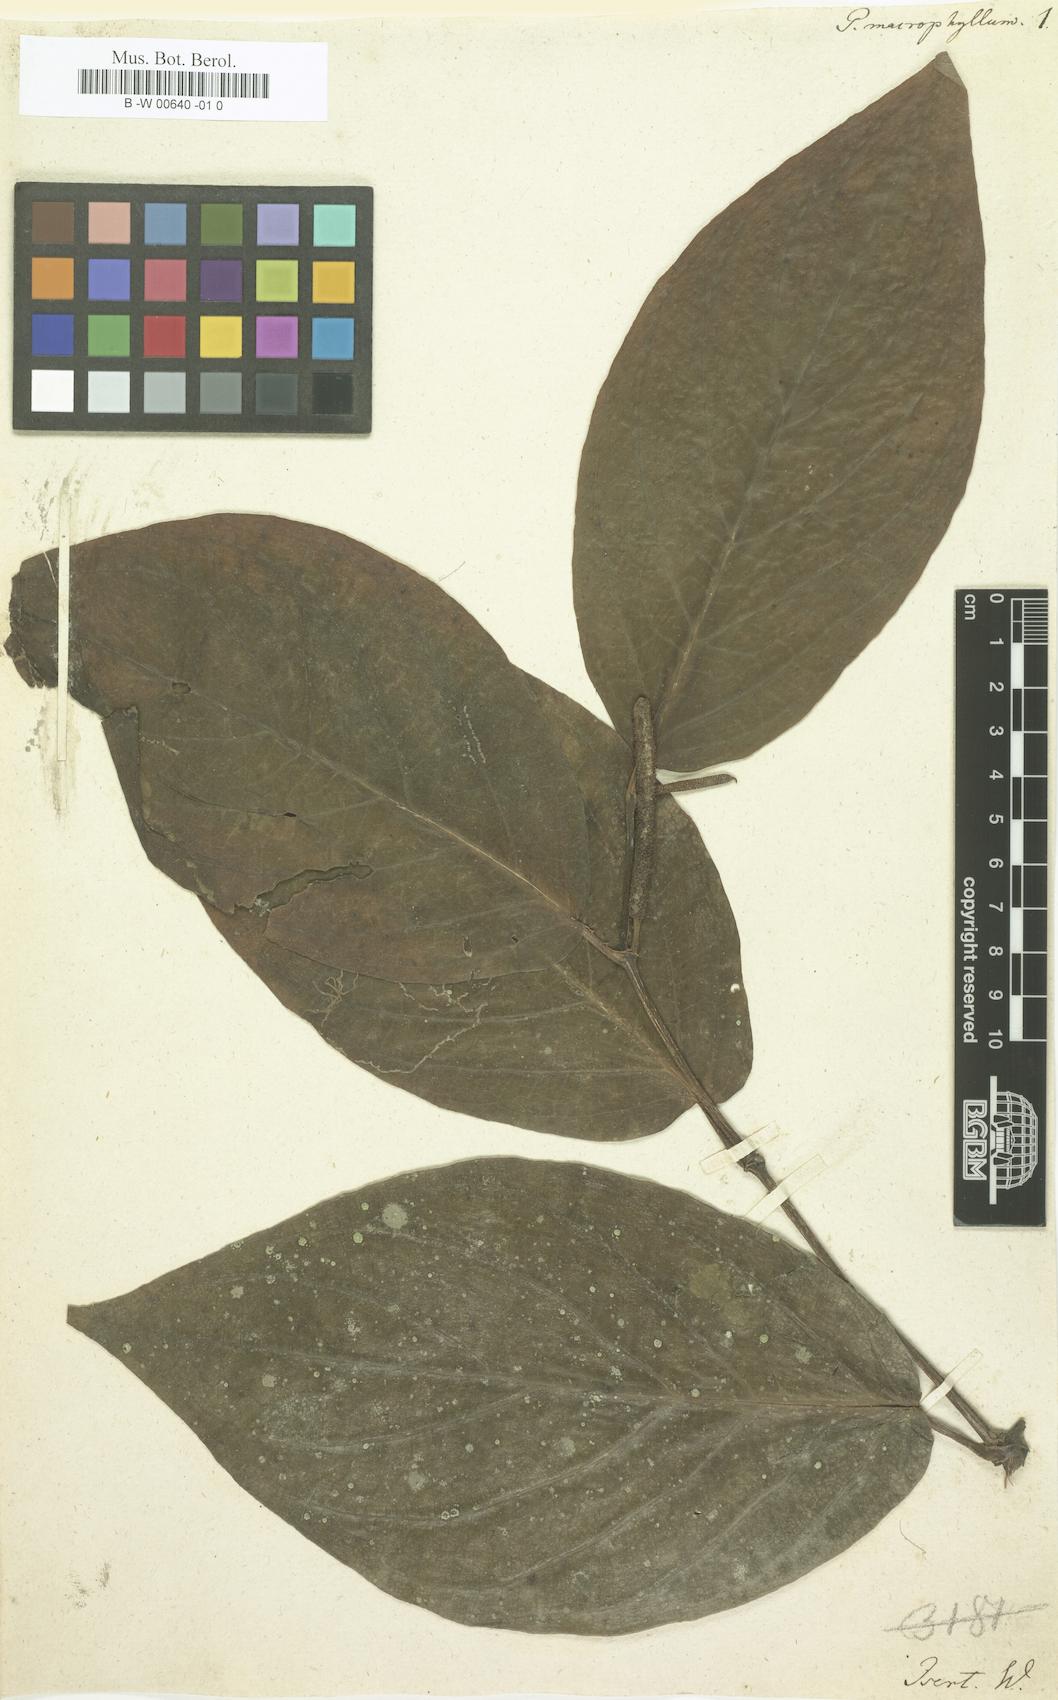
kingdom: Plantae
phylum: Tracheophyta
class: Magnoliopsida
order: Piperales
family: Piperaceae
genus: Piper
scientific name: Piper
